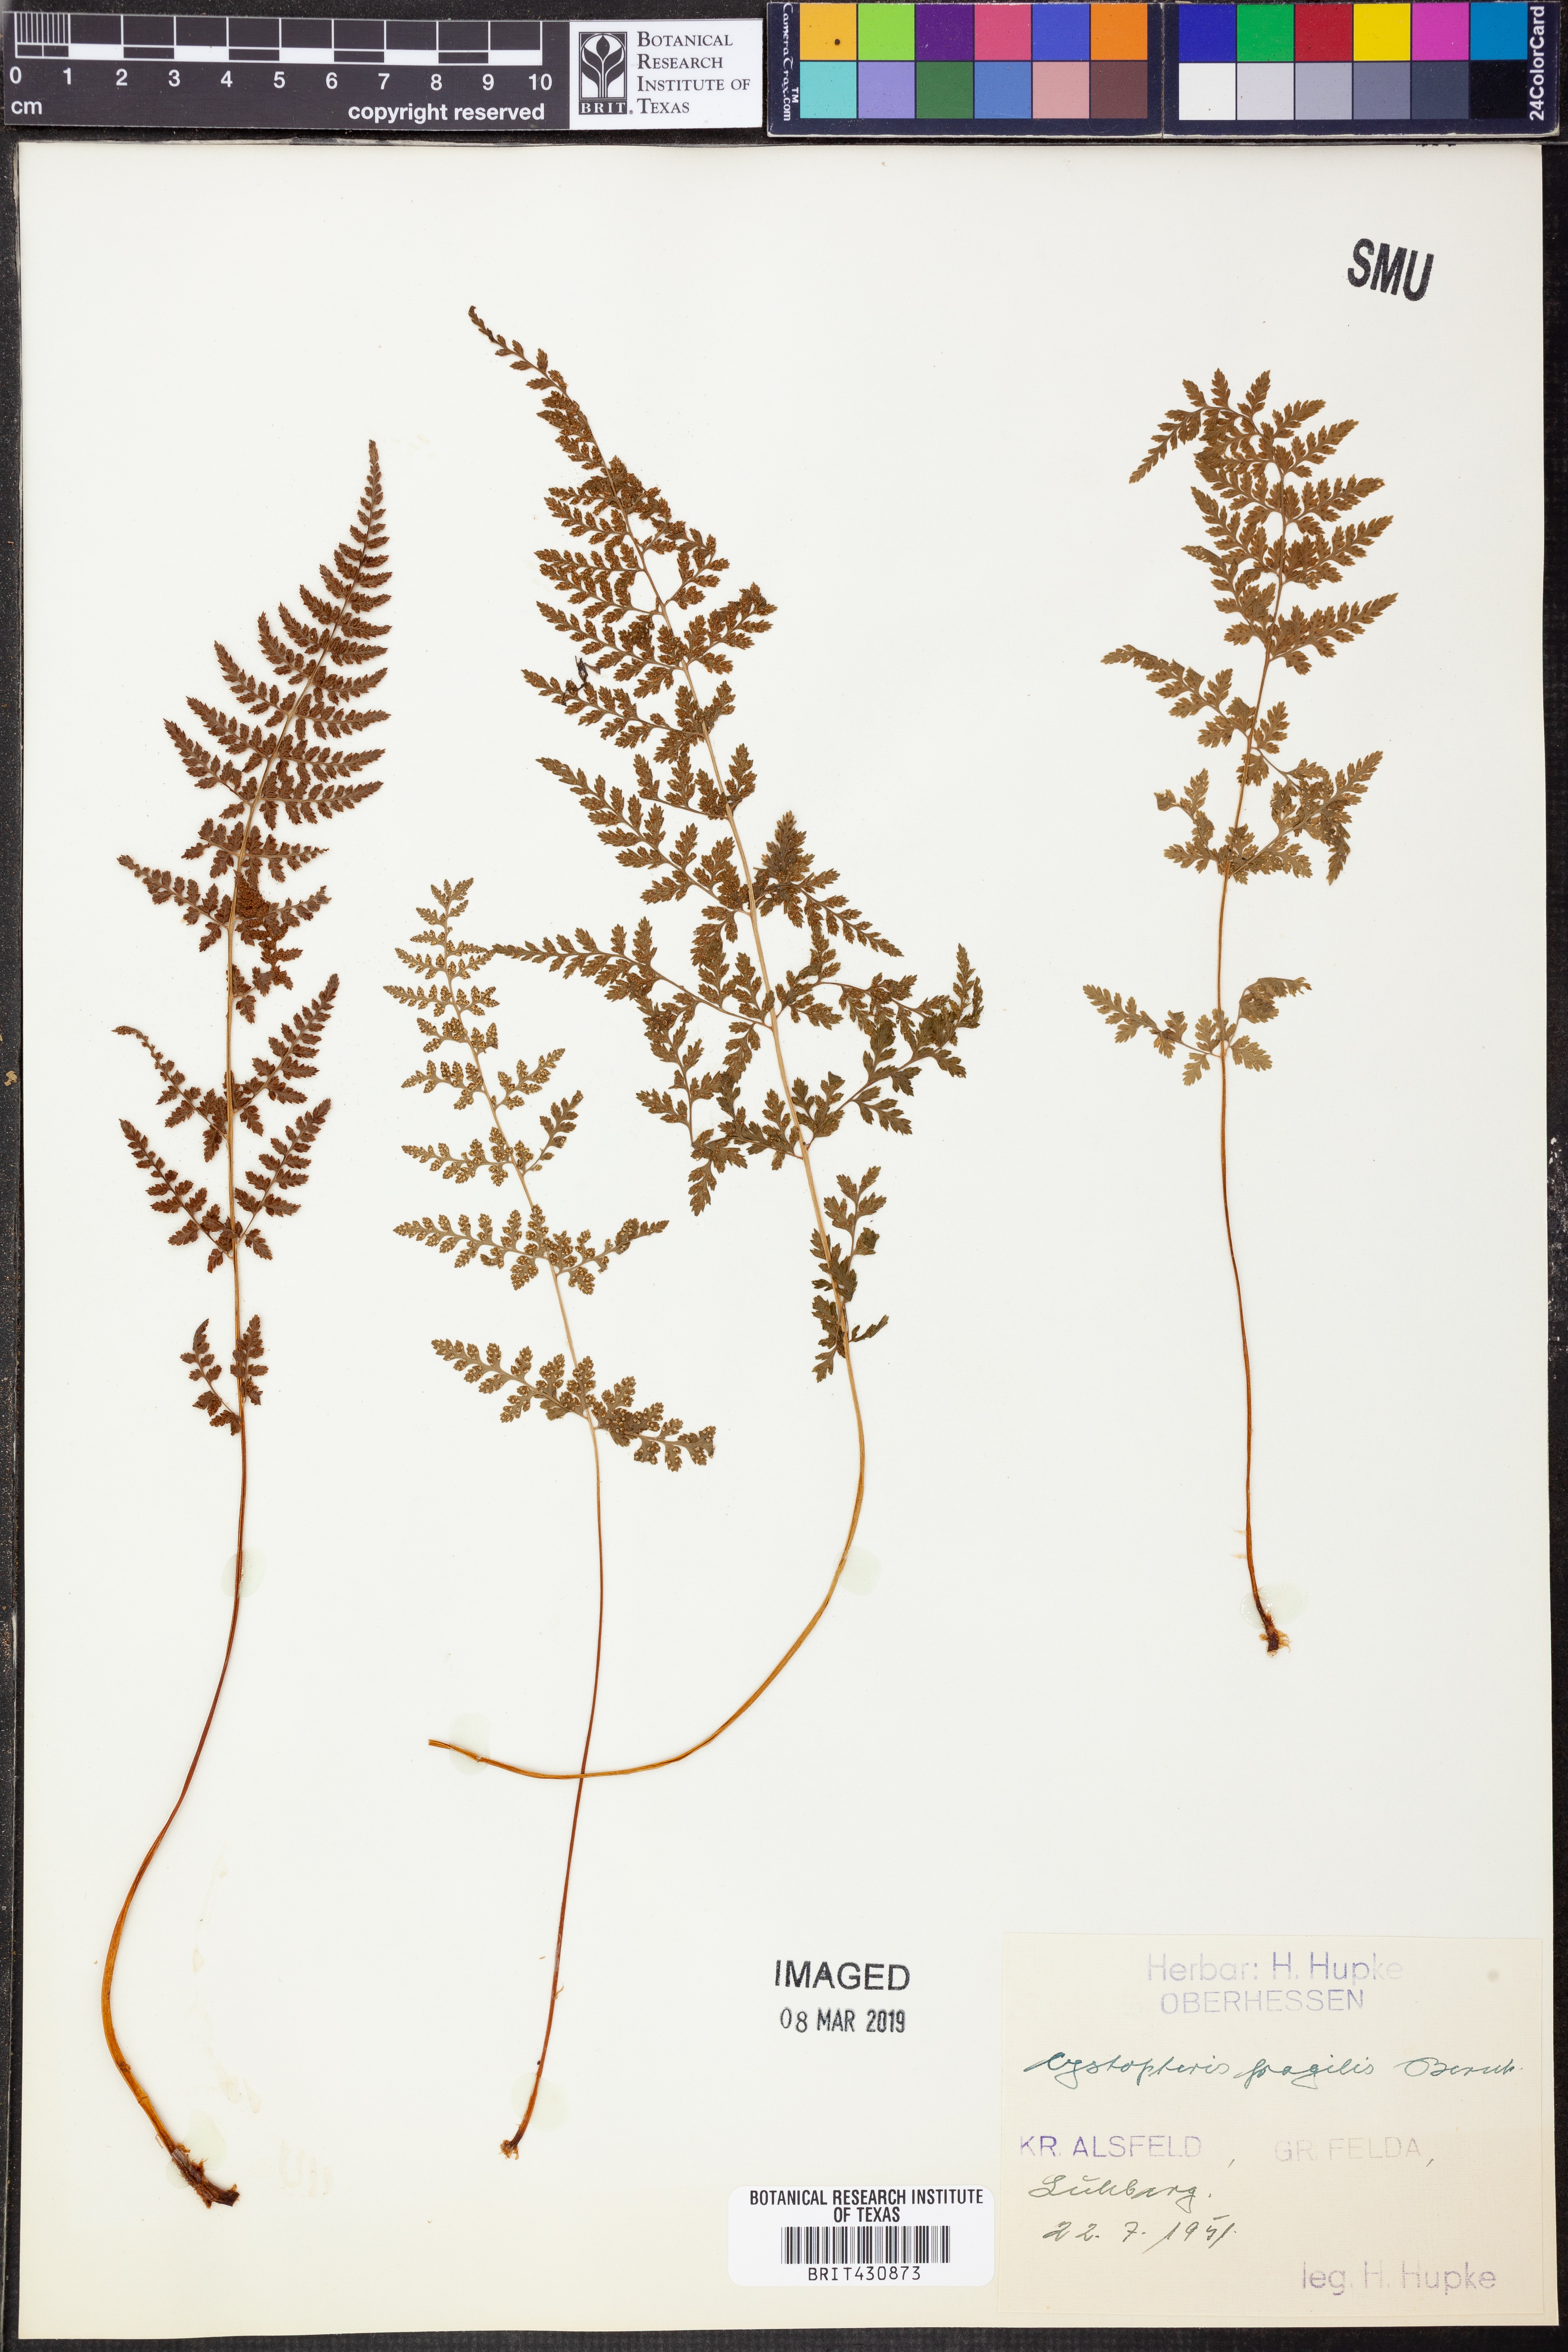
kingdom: Plantae
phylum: Tracheophyta
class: Polypodiopsida
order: Polypodiales
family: Cystopteridaceae
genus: Cystopteris
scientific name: Cystopteris fragilis
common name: Brittle bladder fern
